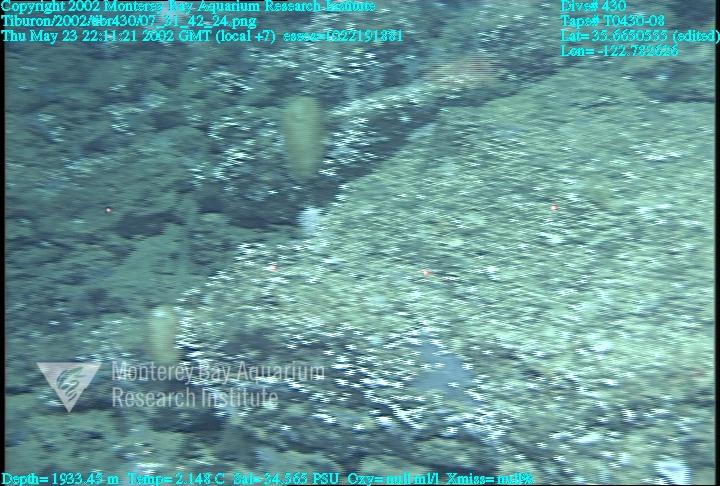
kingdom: Animalia
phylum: Porifera
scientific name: Porifera
